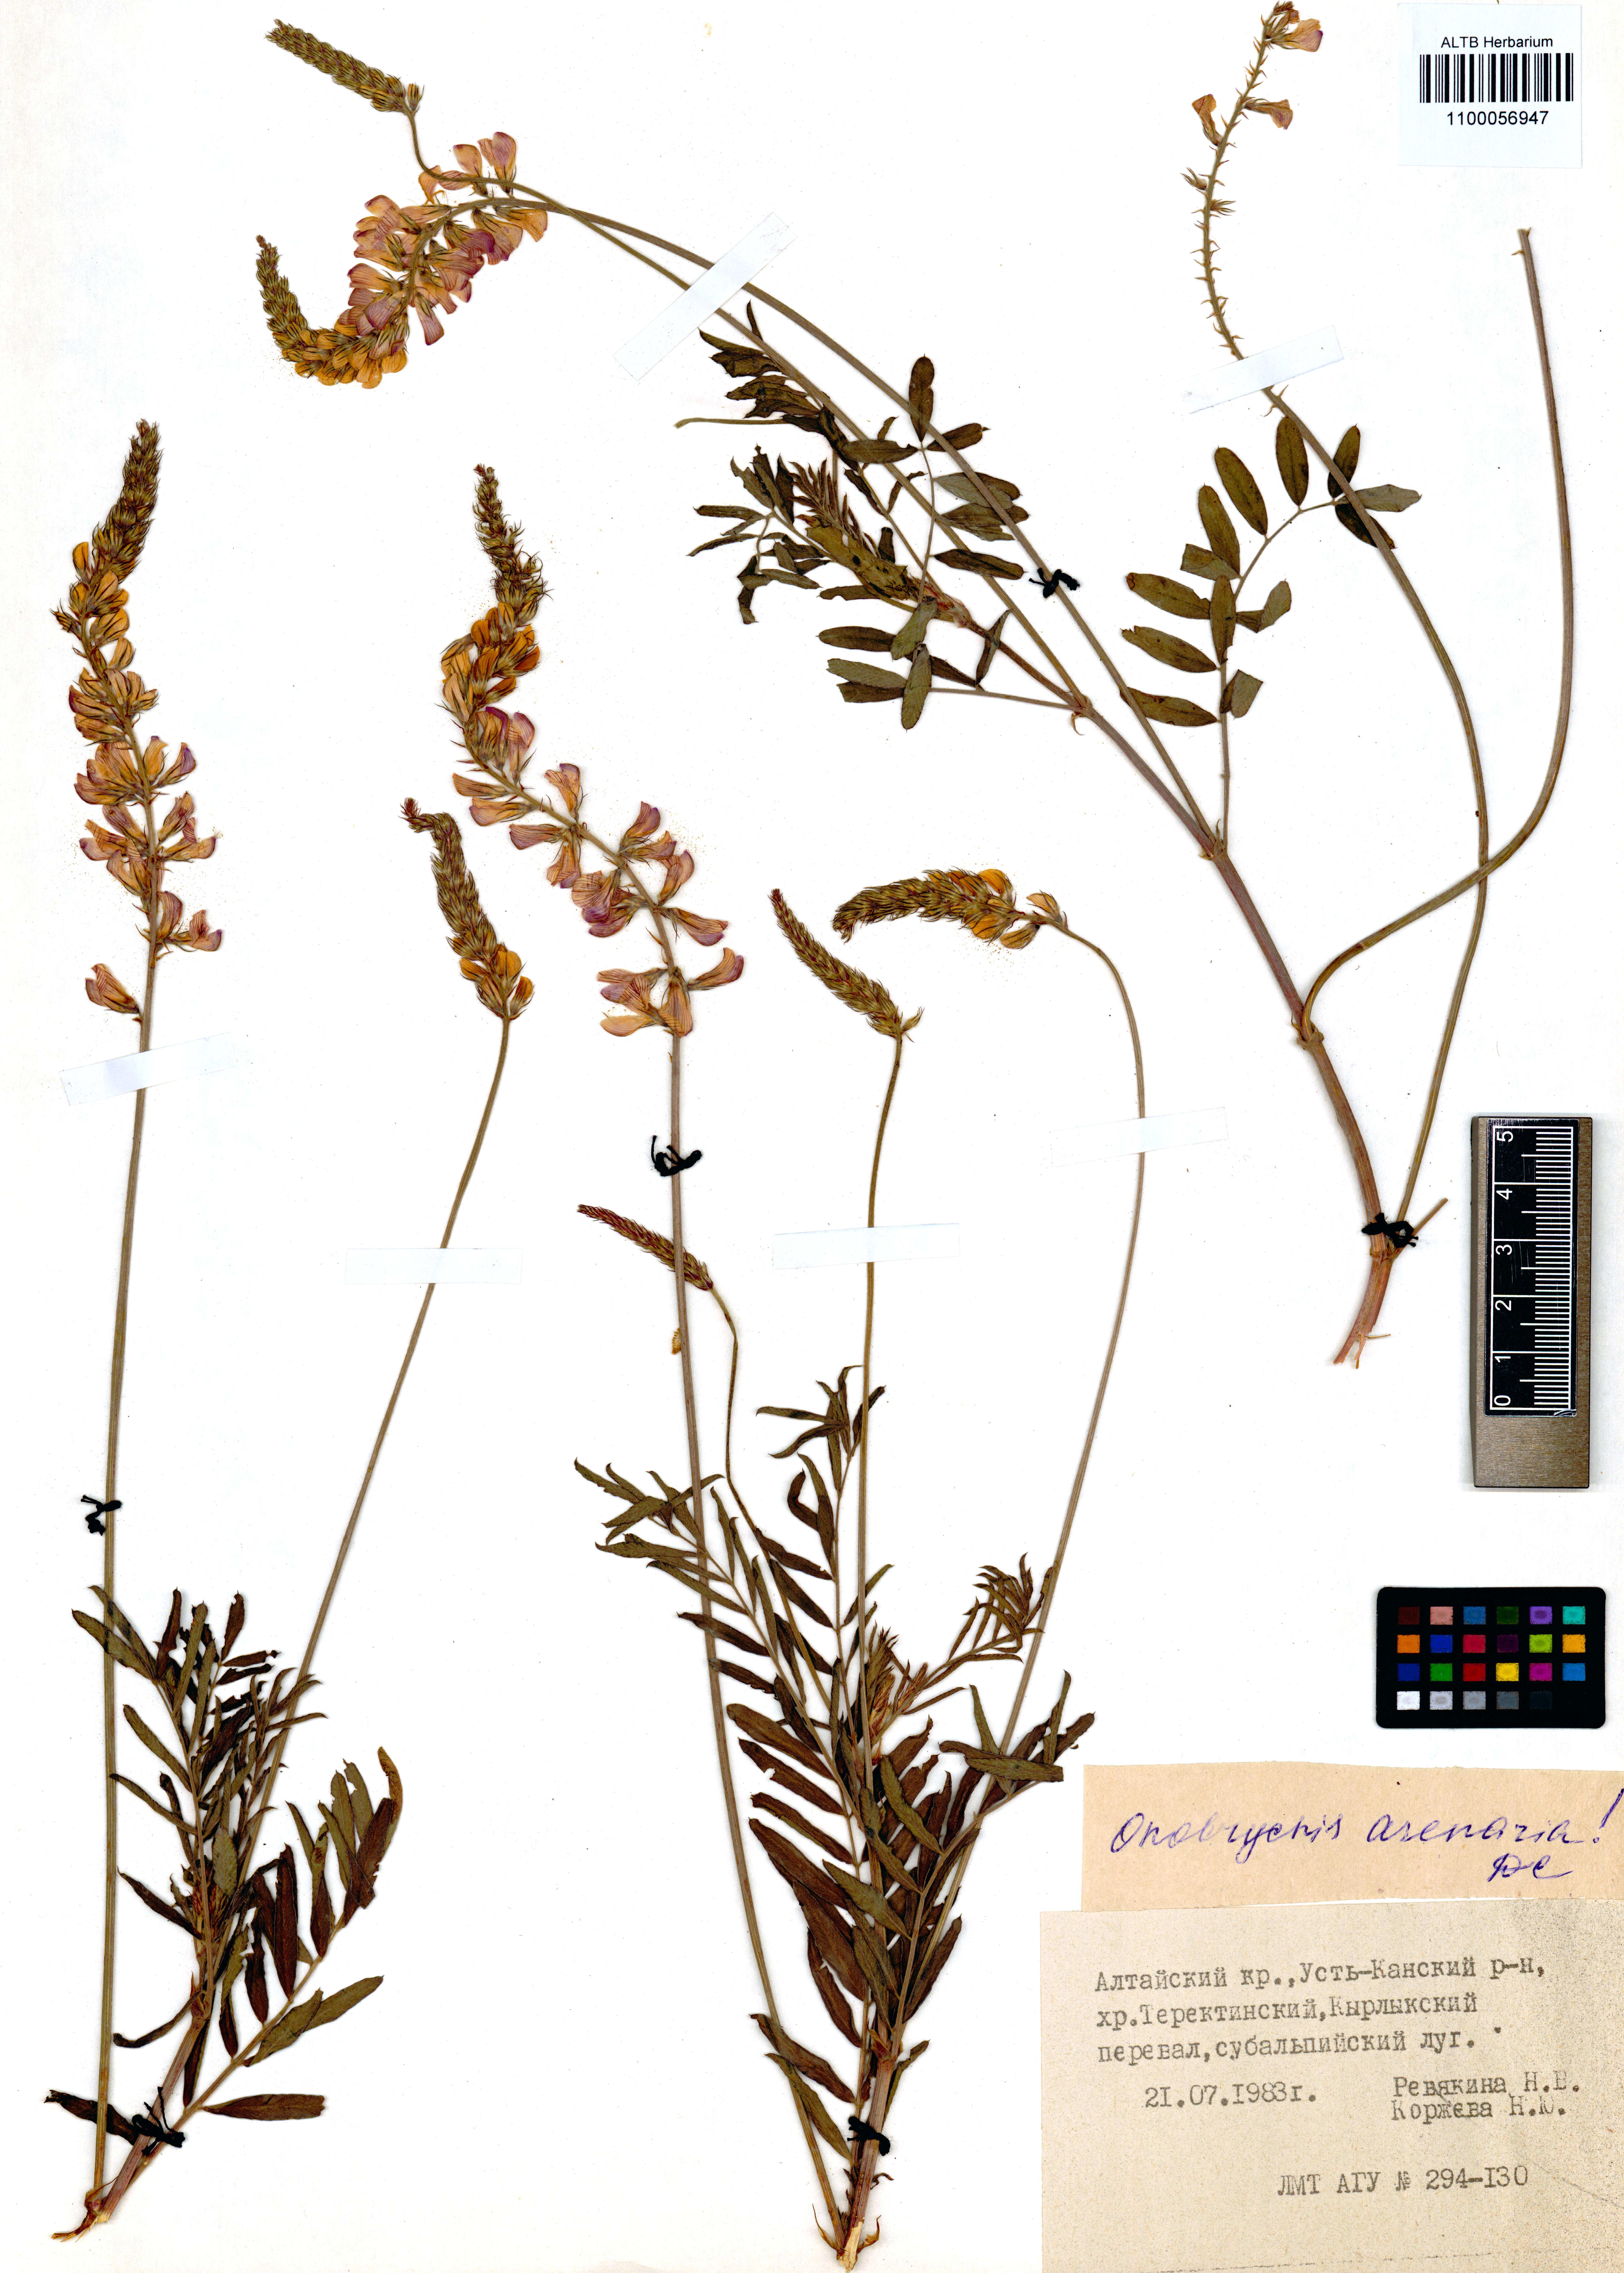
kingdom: Plantae
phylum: Tracheophyta
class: Magnoliopsida
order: Fabales
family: Fabaceae
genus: Onobrychis
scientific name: Onobrychis arenaria
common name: Sand esparcet
